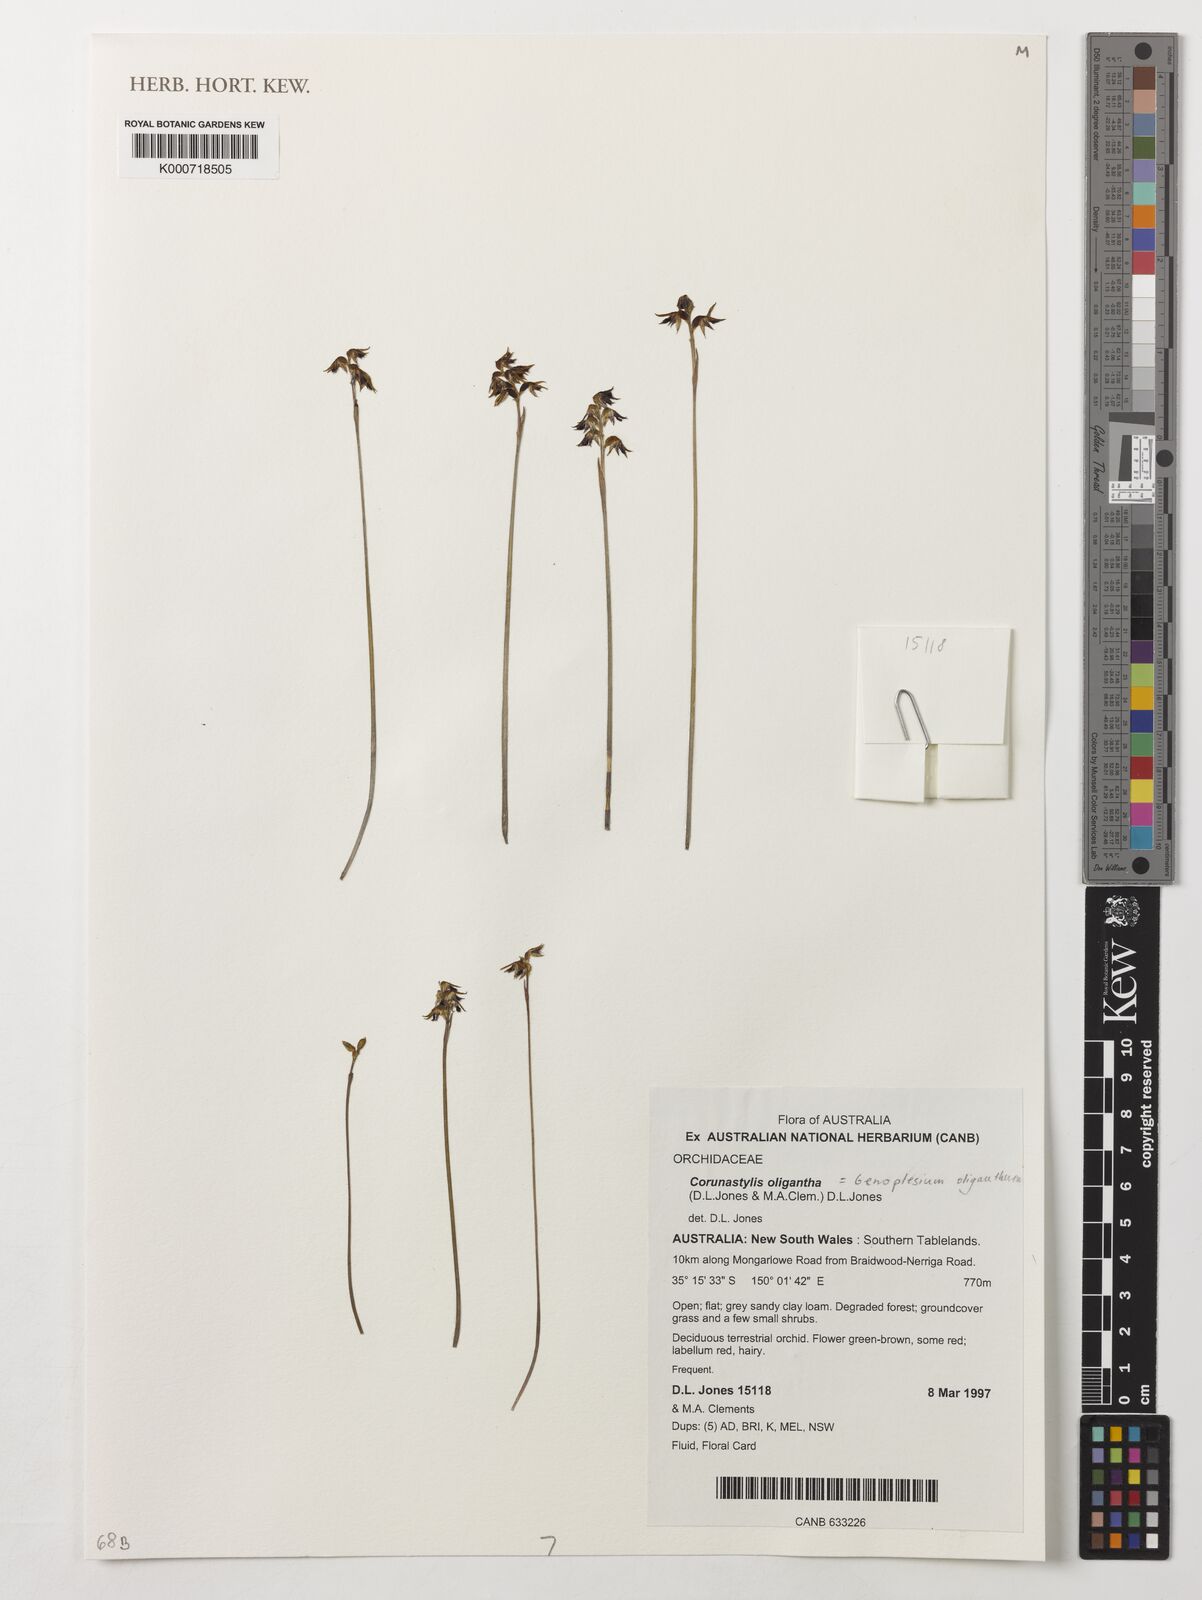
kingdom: Plantae
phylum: Tracheophyta
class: Liliopsida
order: Asparagales
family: Orchidaceae
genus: Genoplesium
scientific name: Genoplesium oliganthum
